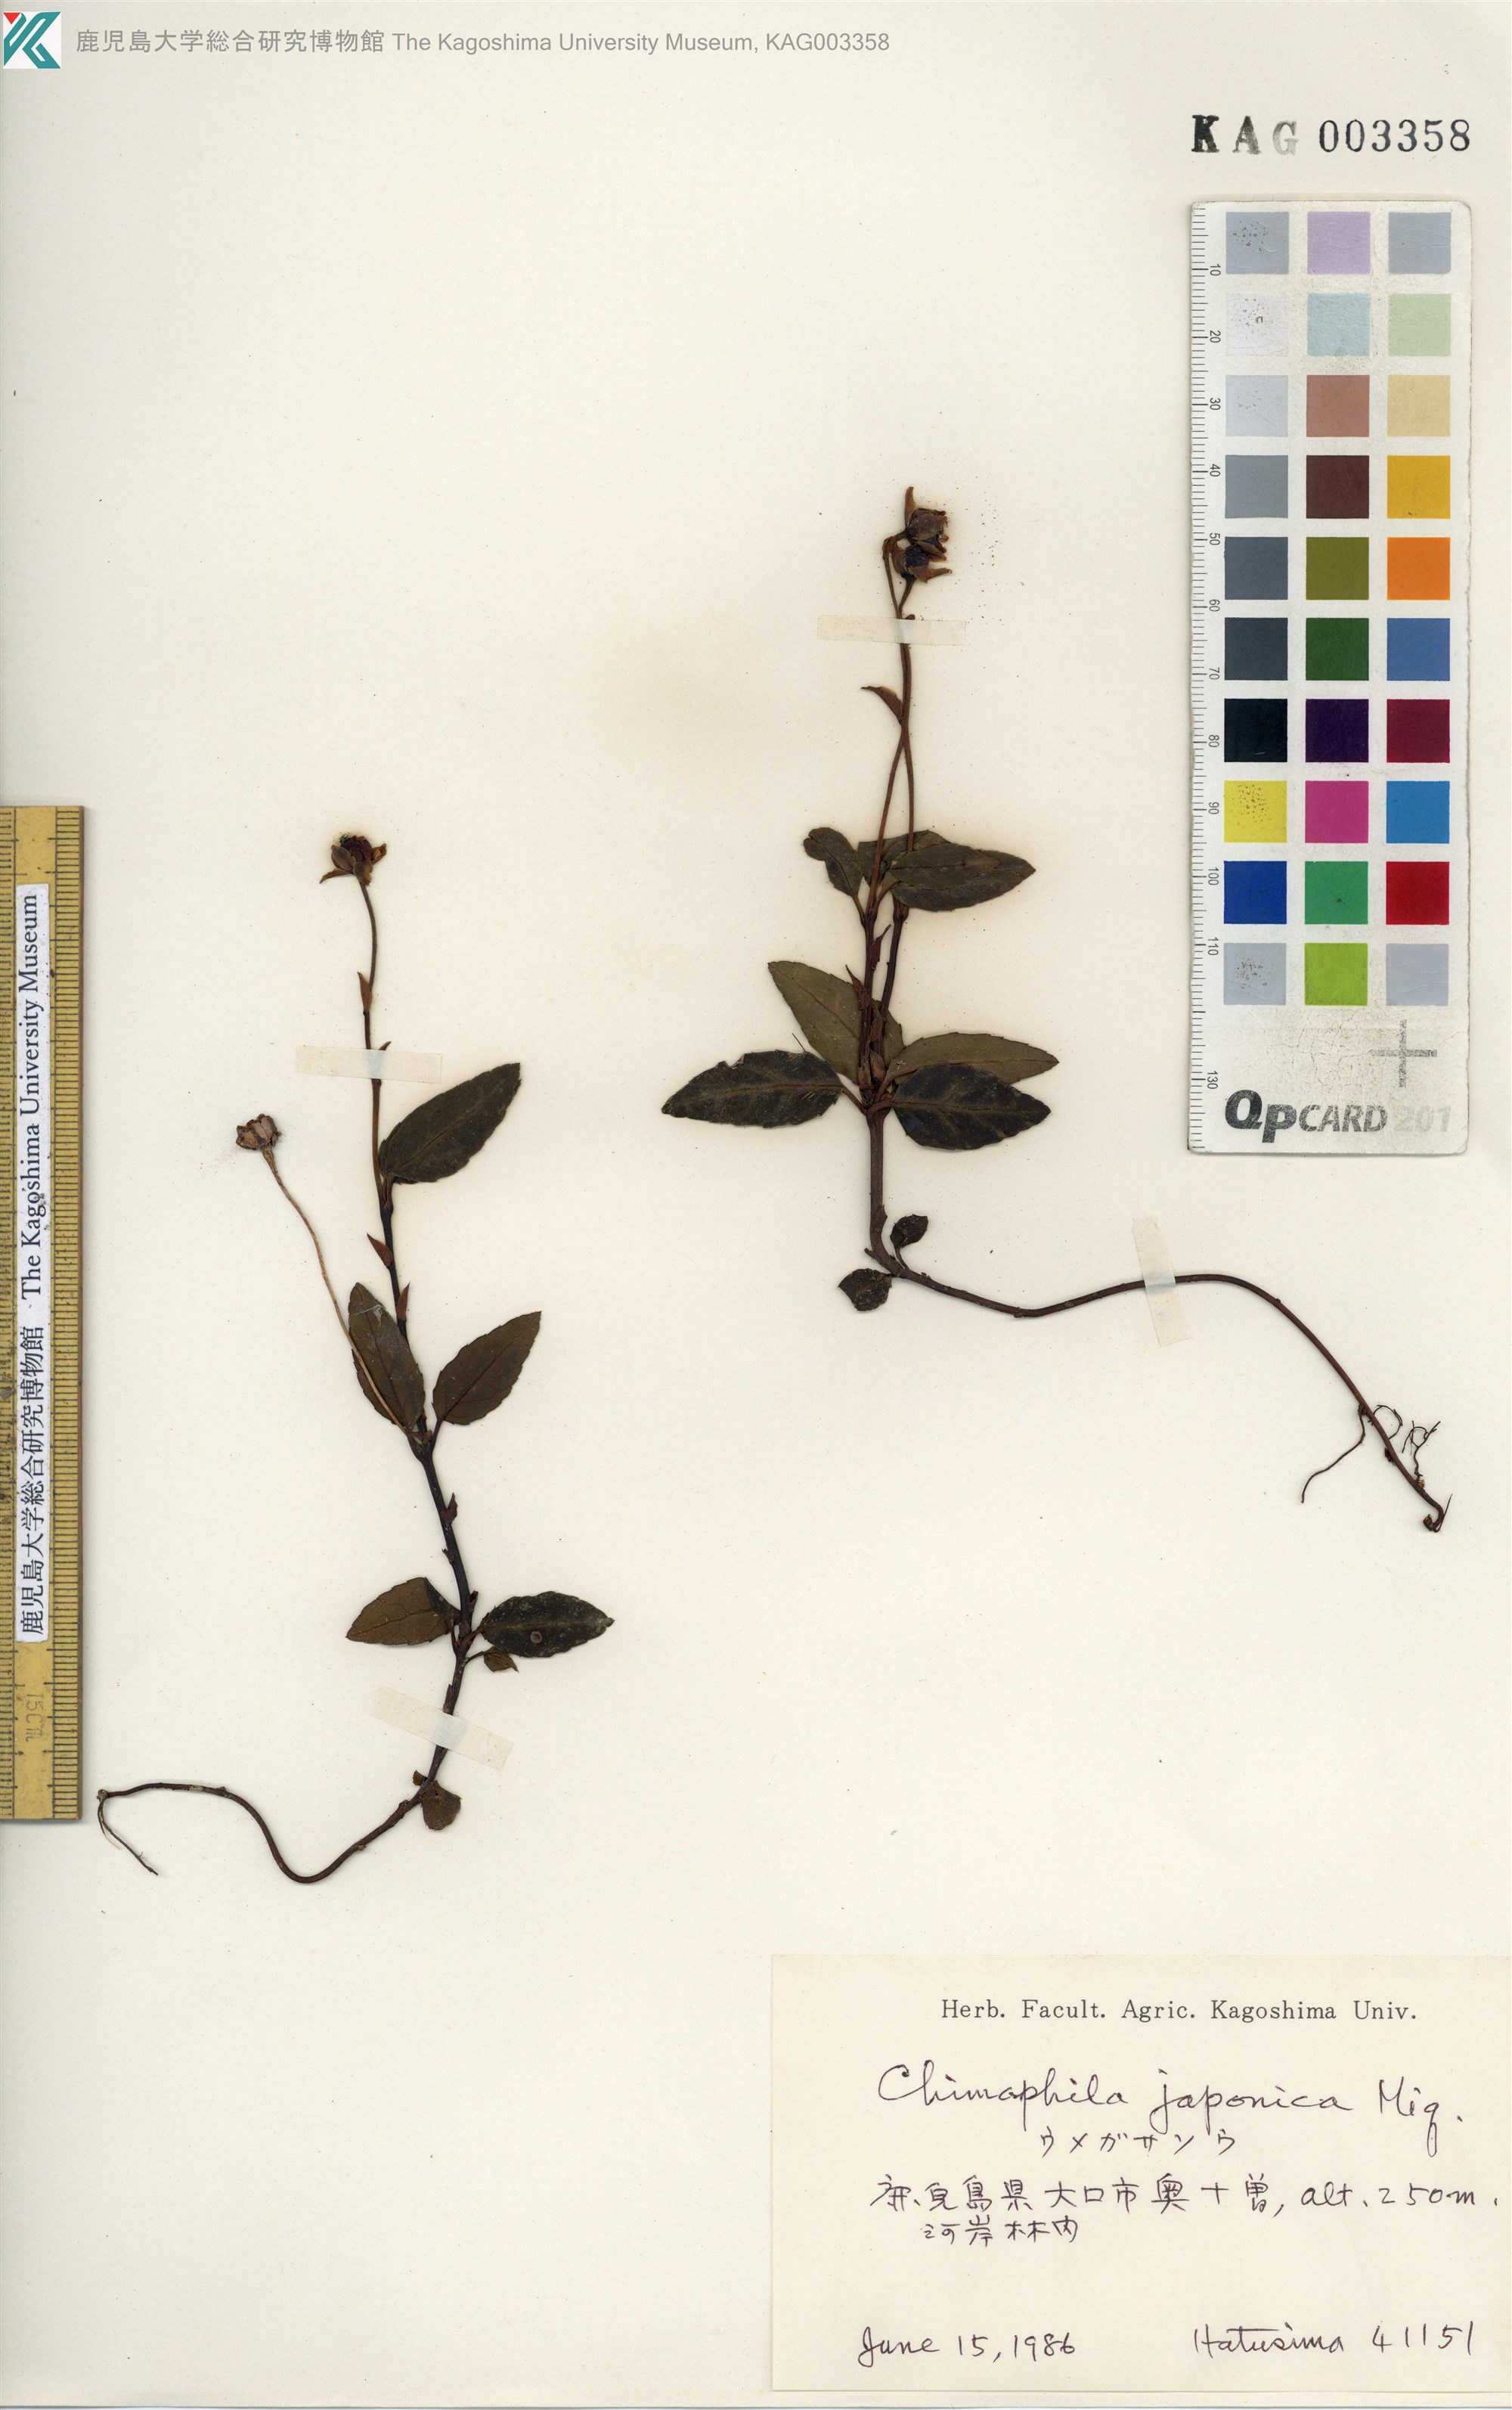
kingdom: Plantae
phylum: Tracheophyta
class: Magnoliopsida
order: Ericales
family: Ericaceae
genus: Chimaphila
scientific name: Chimaphila japonica
